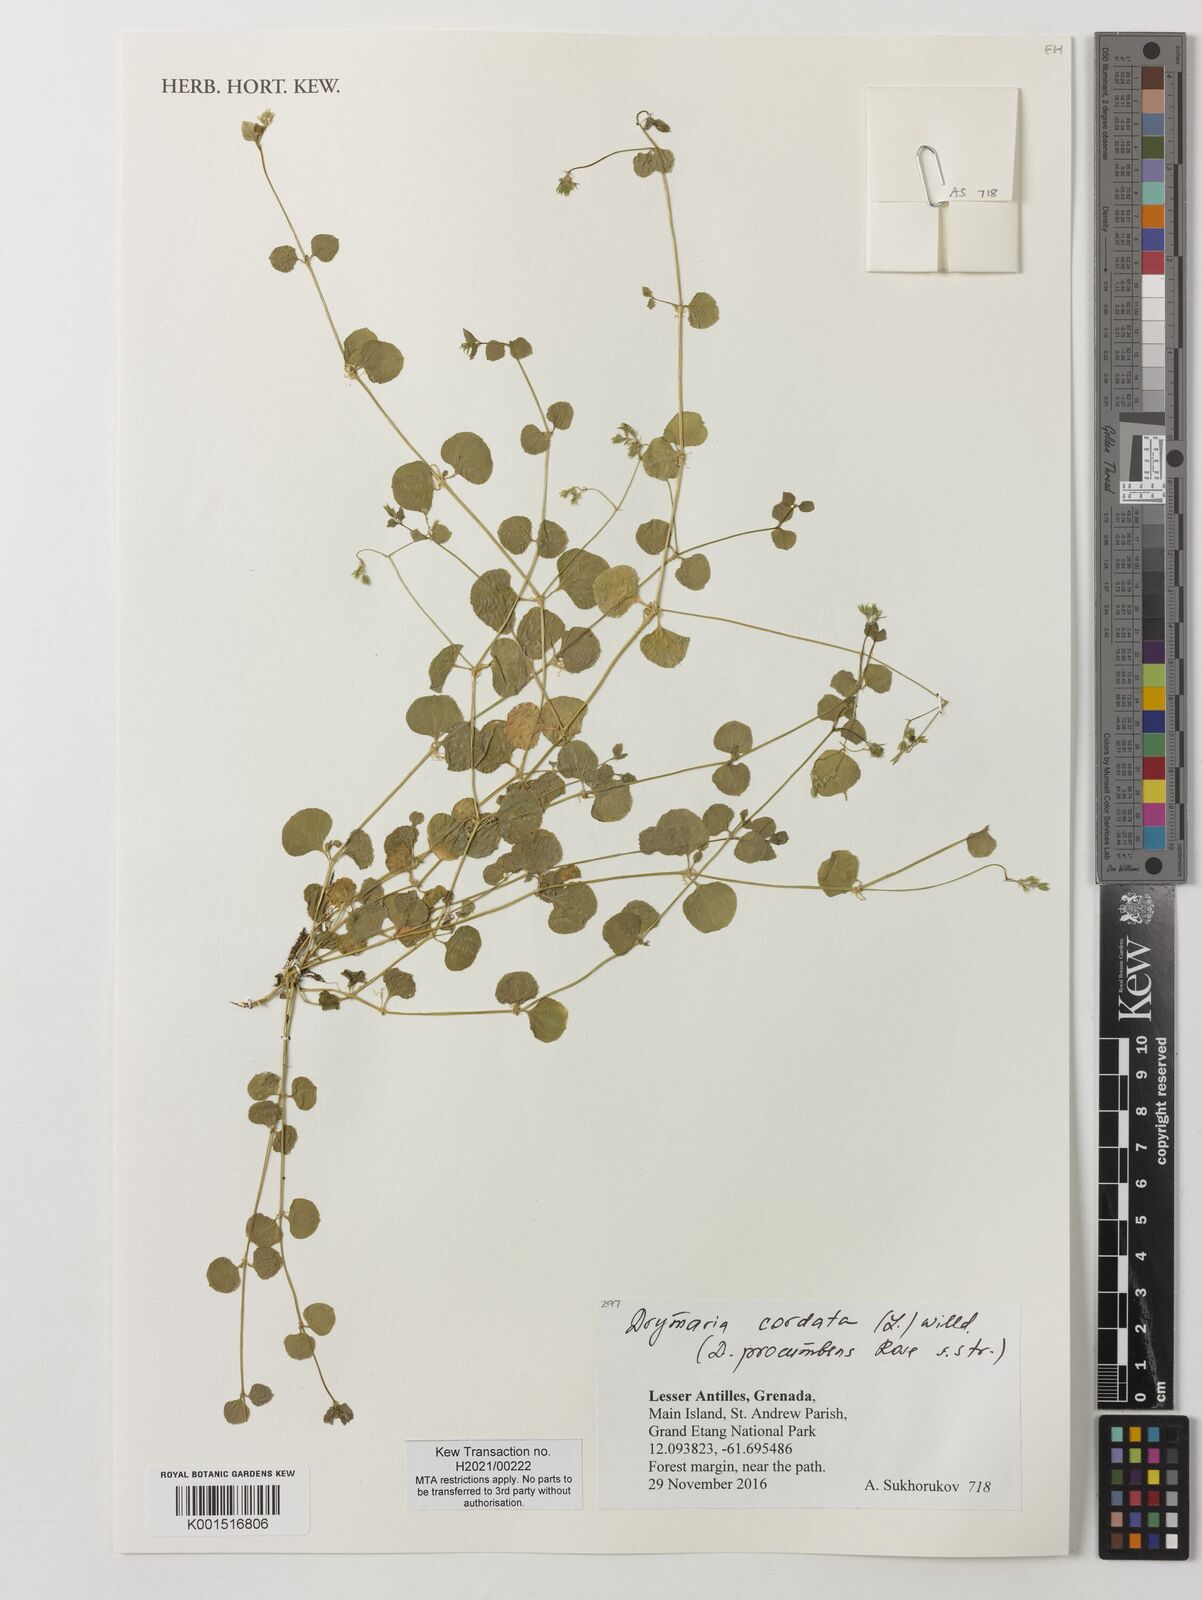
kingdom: Plantae
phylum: Tracheophyta
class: Magnoliopsida
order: Caryophyllales
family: Caryophyllaceae
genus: Drymaria
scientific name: Drymaria cordata
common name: Whitesnow
